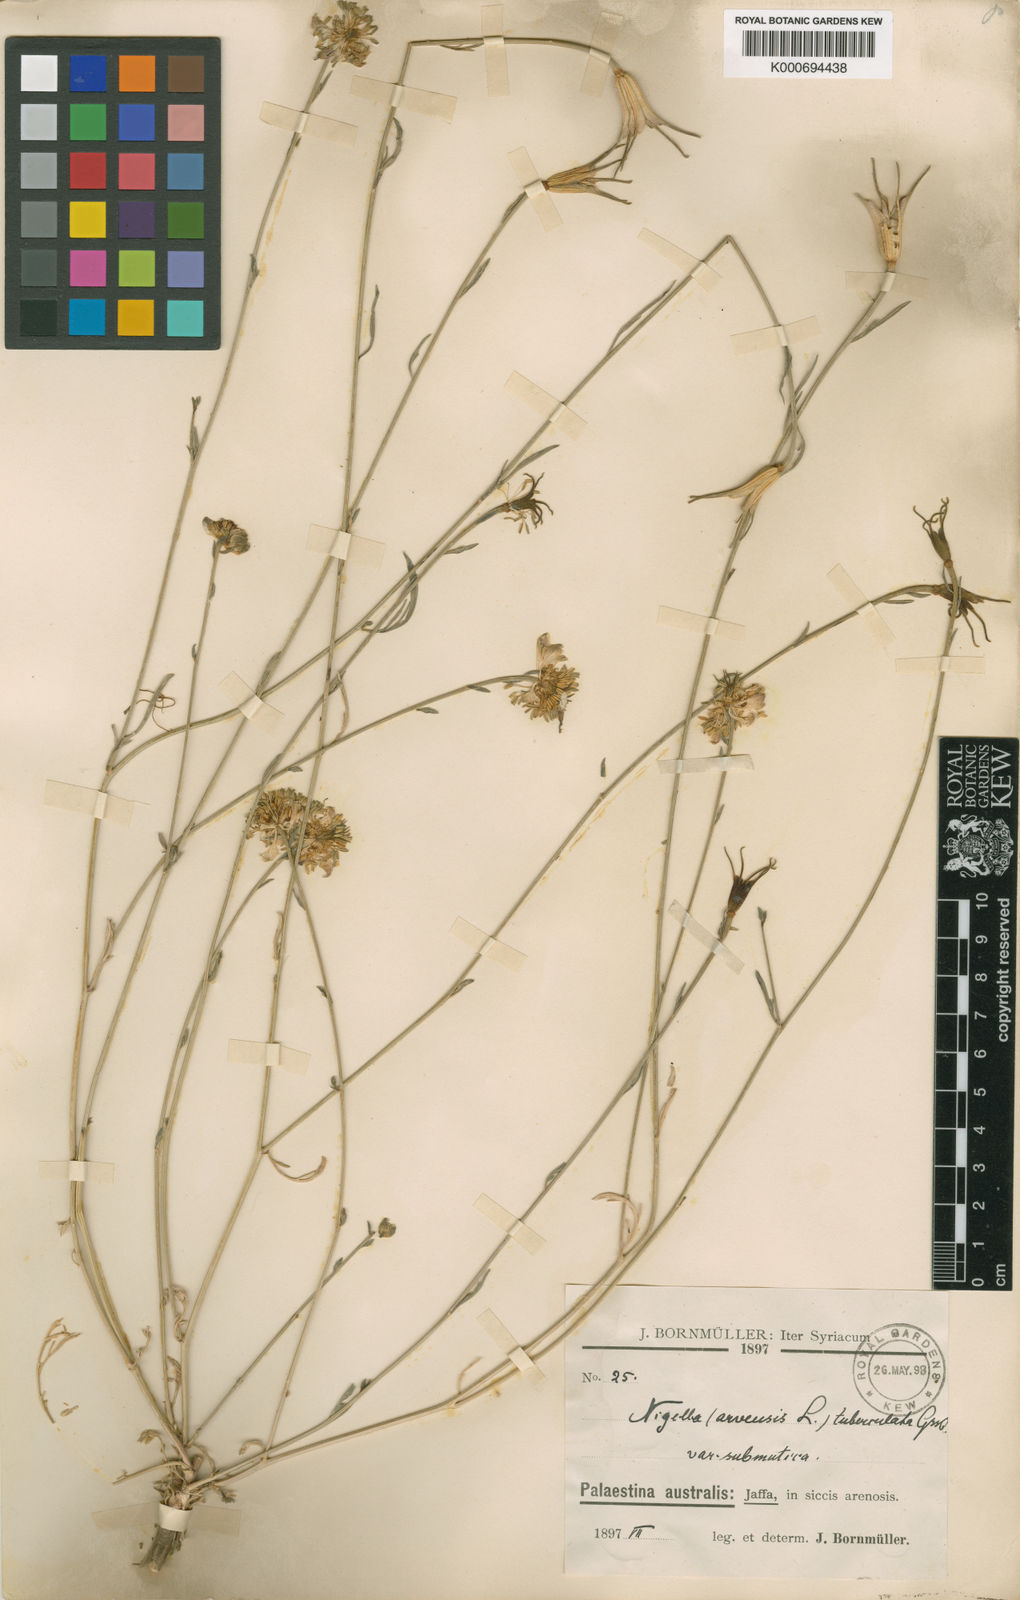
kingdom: Plantae
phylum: Tracheophyta
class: Magnoliopsida
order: Ranunculales
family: Ranunculaceae
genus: Nigella
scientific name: Nigella arvensis
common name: Wild fennel-flower
